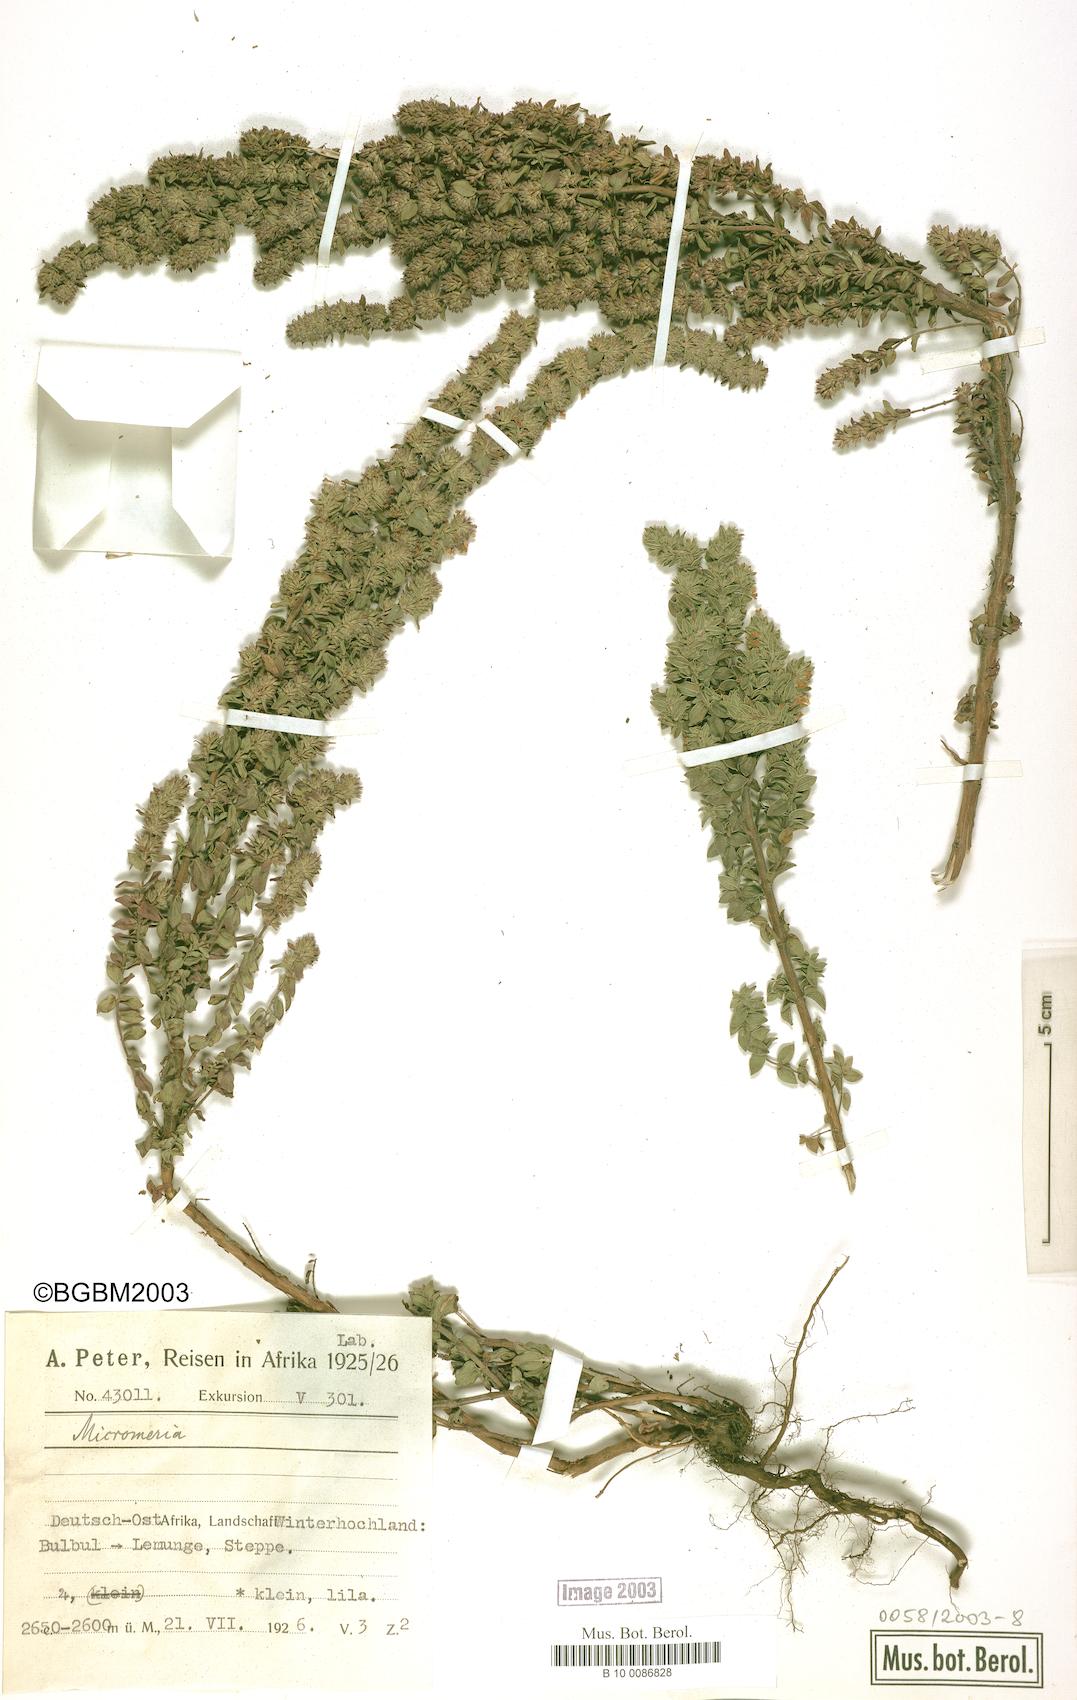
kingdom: Plantae
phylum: Tracheophyta
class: Magnoliopsida
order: Lamiales
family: Lamiaceae
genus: Micromeria
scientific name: Micromeria
